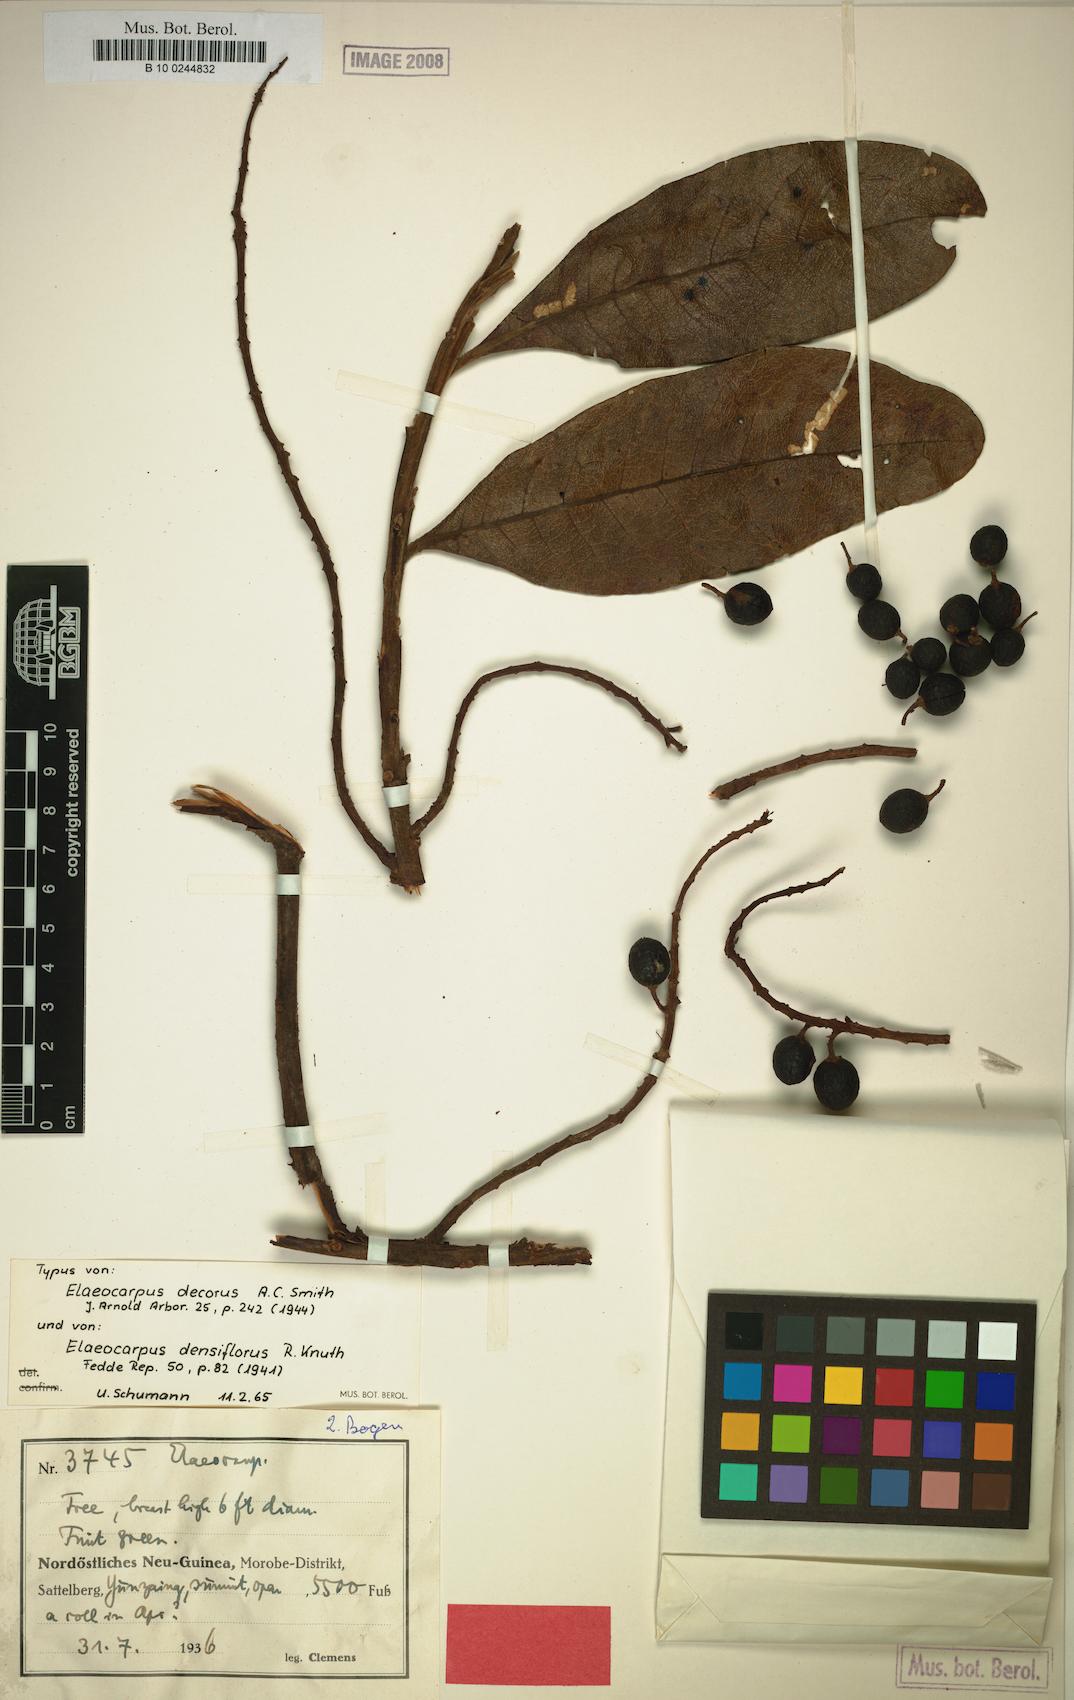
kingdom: Plantae
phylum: Tracheophyta
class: Magnoliopsida
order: Oxalidales
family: Elaeocarpaceae
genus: Elaeocarpus
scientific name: Elaeocarpus densiflorus
